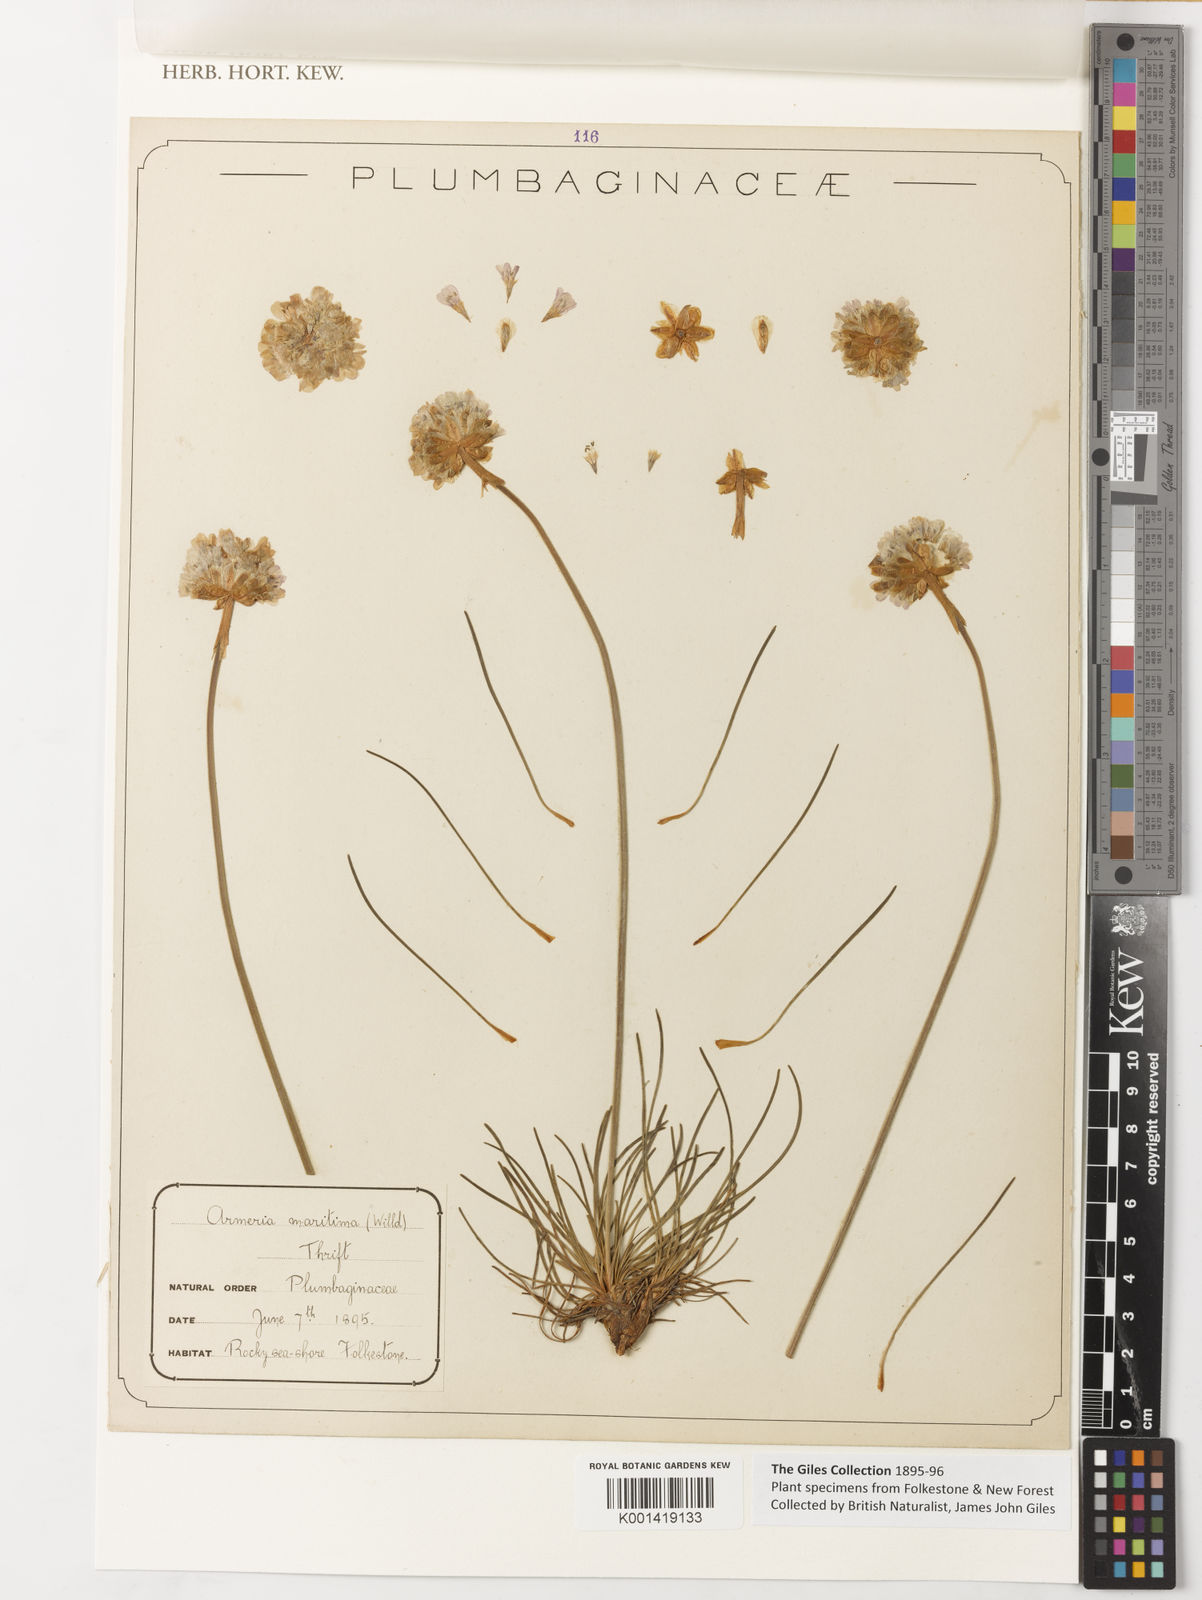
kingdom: Plantae
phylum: Tracheophyta
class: Magnoliopsida
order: Caryophyllales
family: Plumbaginaceae
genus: Armeria
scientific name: Armeria maritima
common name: Thrift
